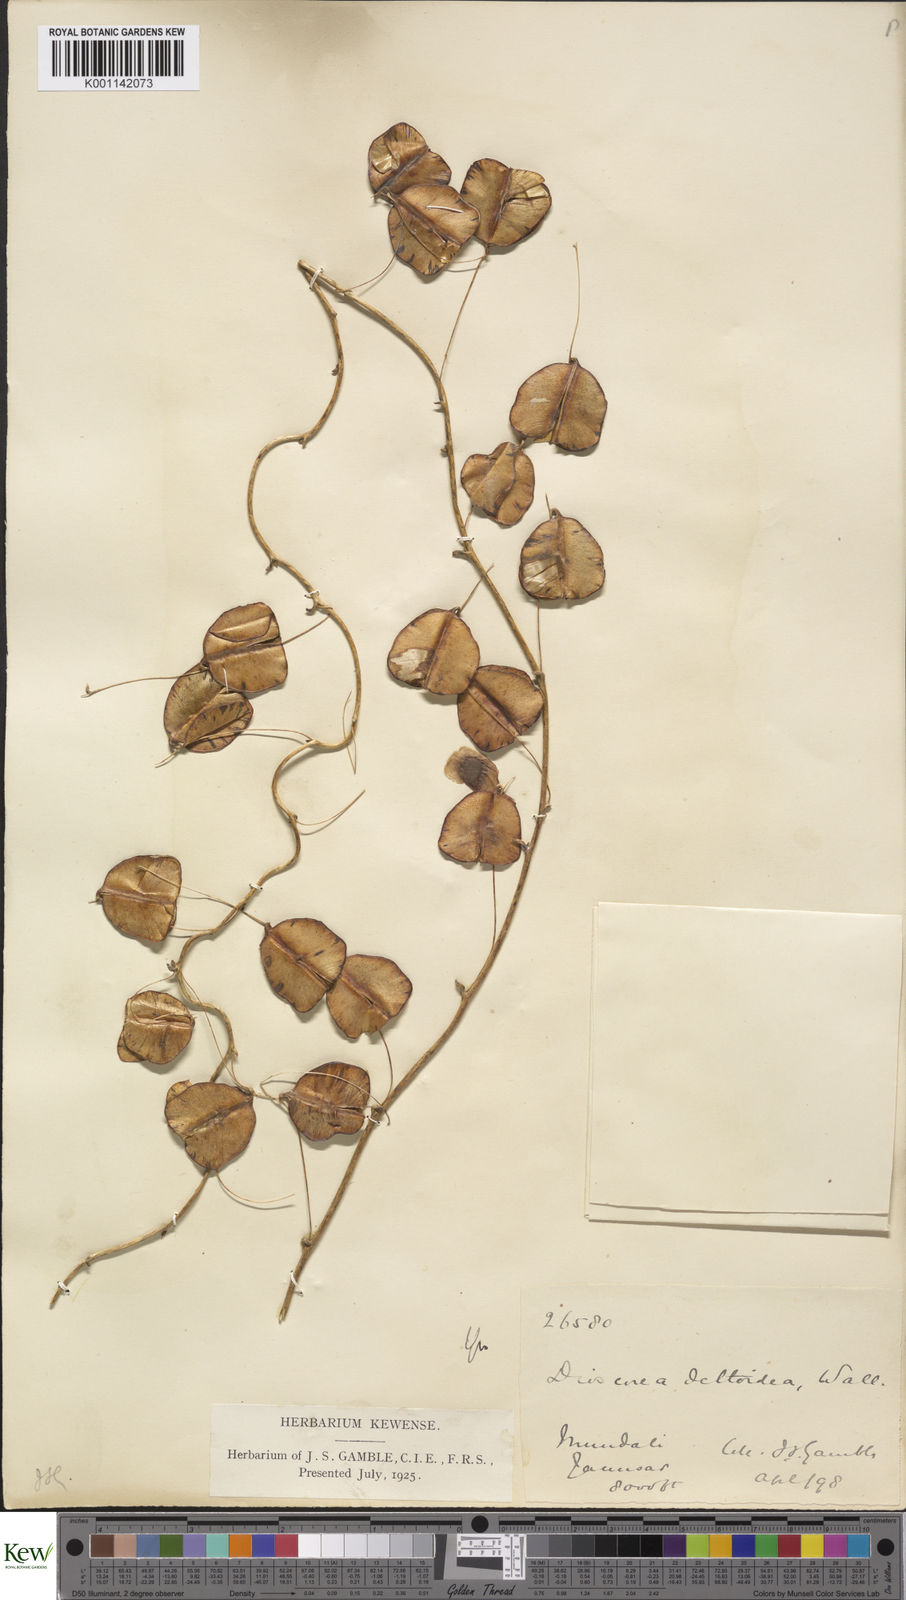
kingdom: Plantae
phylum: Tracheophyta
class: Liliopsida
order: Dioscoreales
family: Dioscoreaceae
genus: Dioscorea
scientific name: Dioscorea deltoidea
